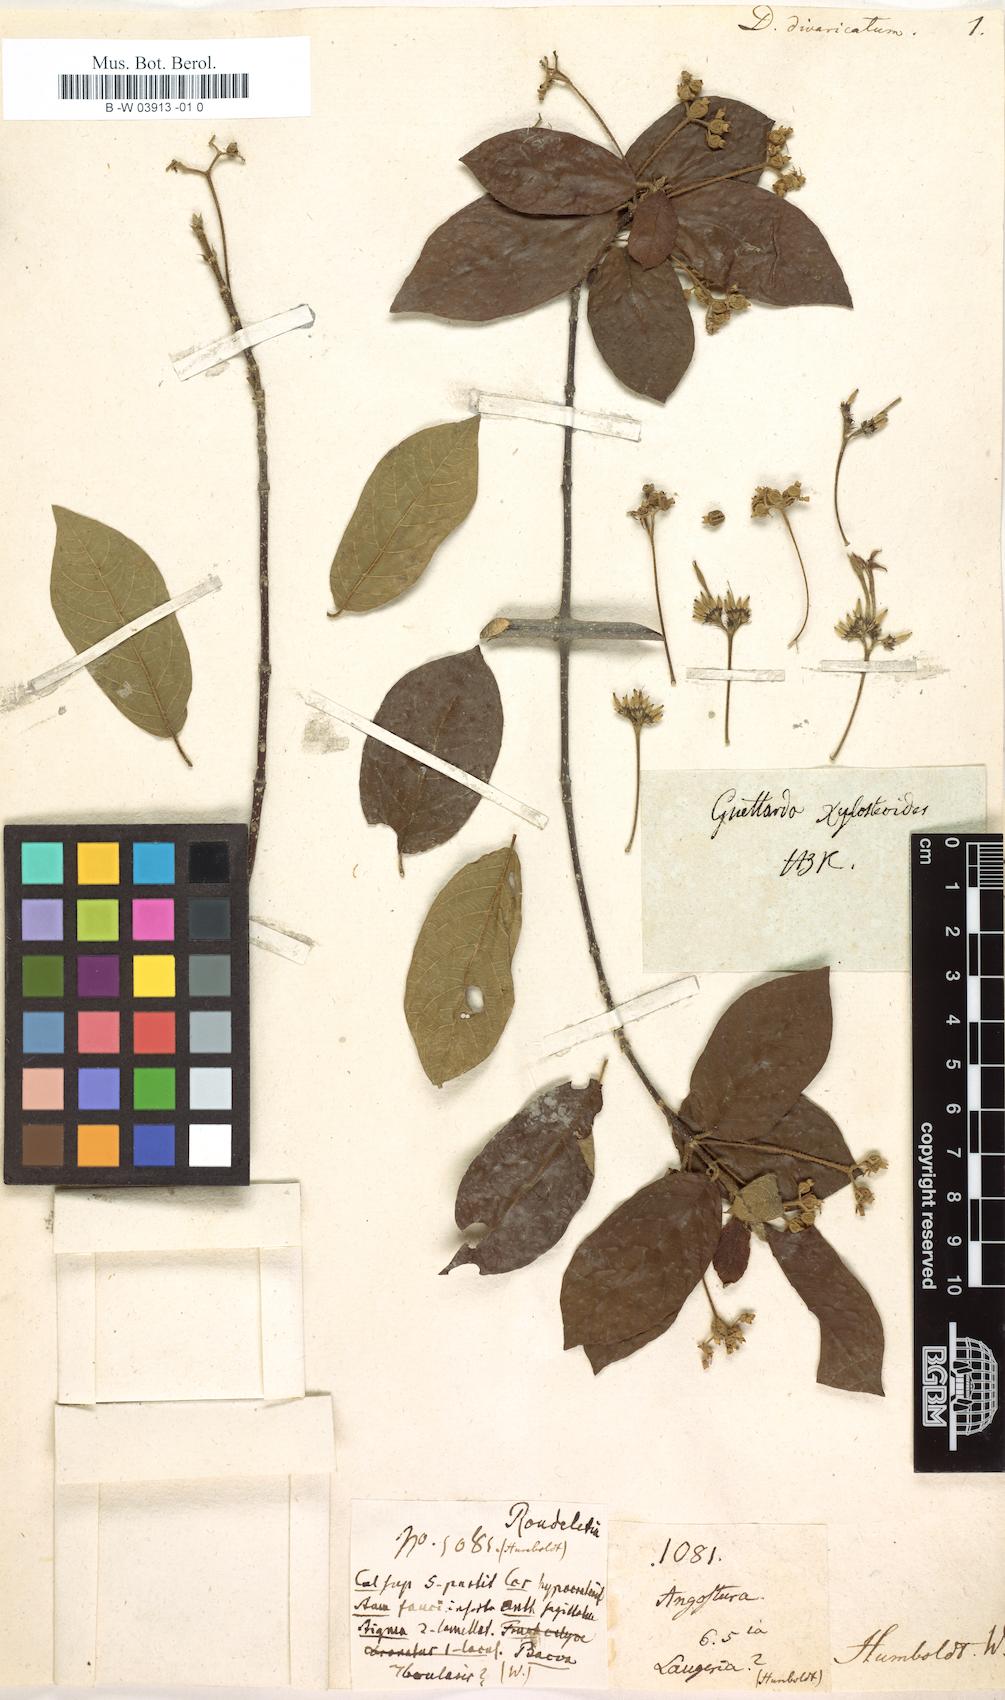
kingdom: Plantae
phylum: Tracheophyta
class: Magnoliopsida
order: Gentianales
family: Rubiaceae
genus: Guettarda
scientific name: Guettarda divaricata
